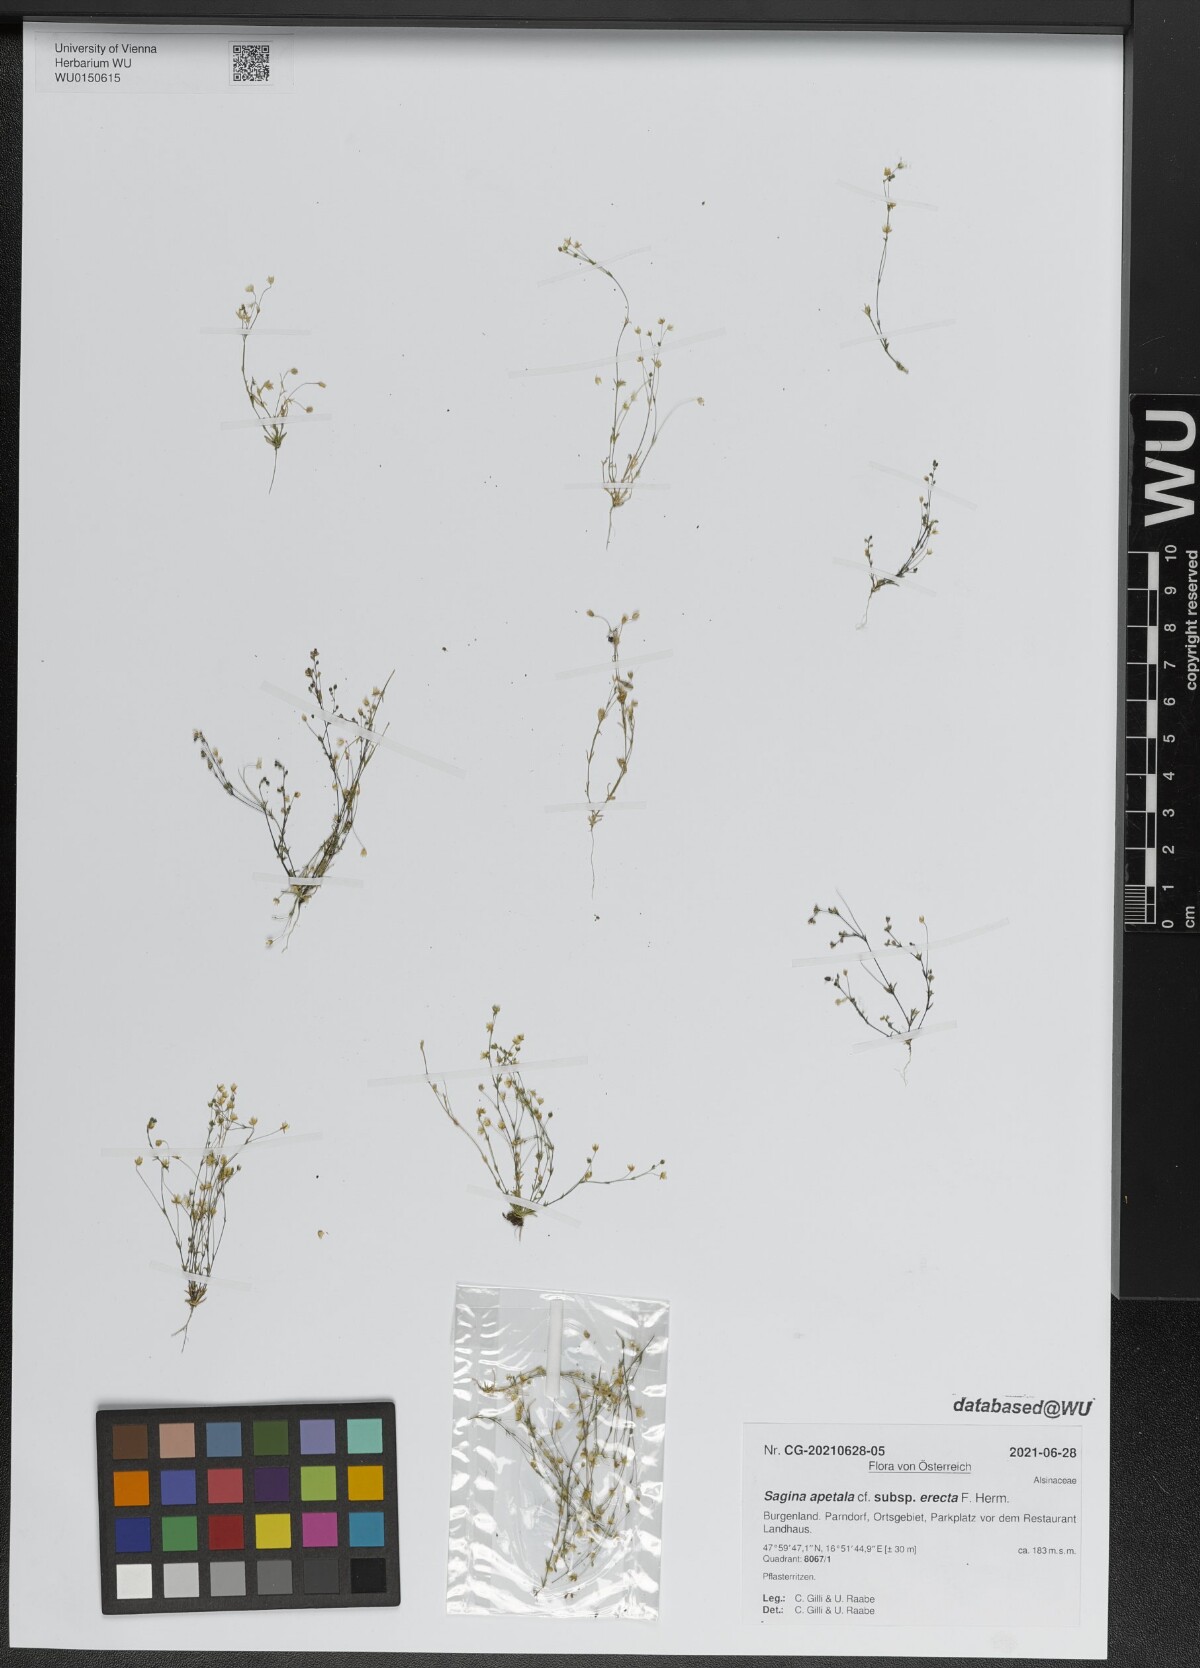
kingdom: Plantae
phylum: Tracheophyta
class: Magnoliopsida
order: Caryophyllales
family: Caryophyllaceae
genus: Sagina
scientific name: Sagina micropetala
